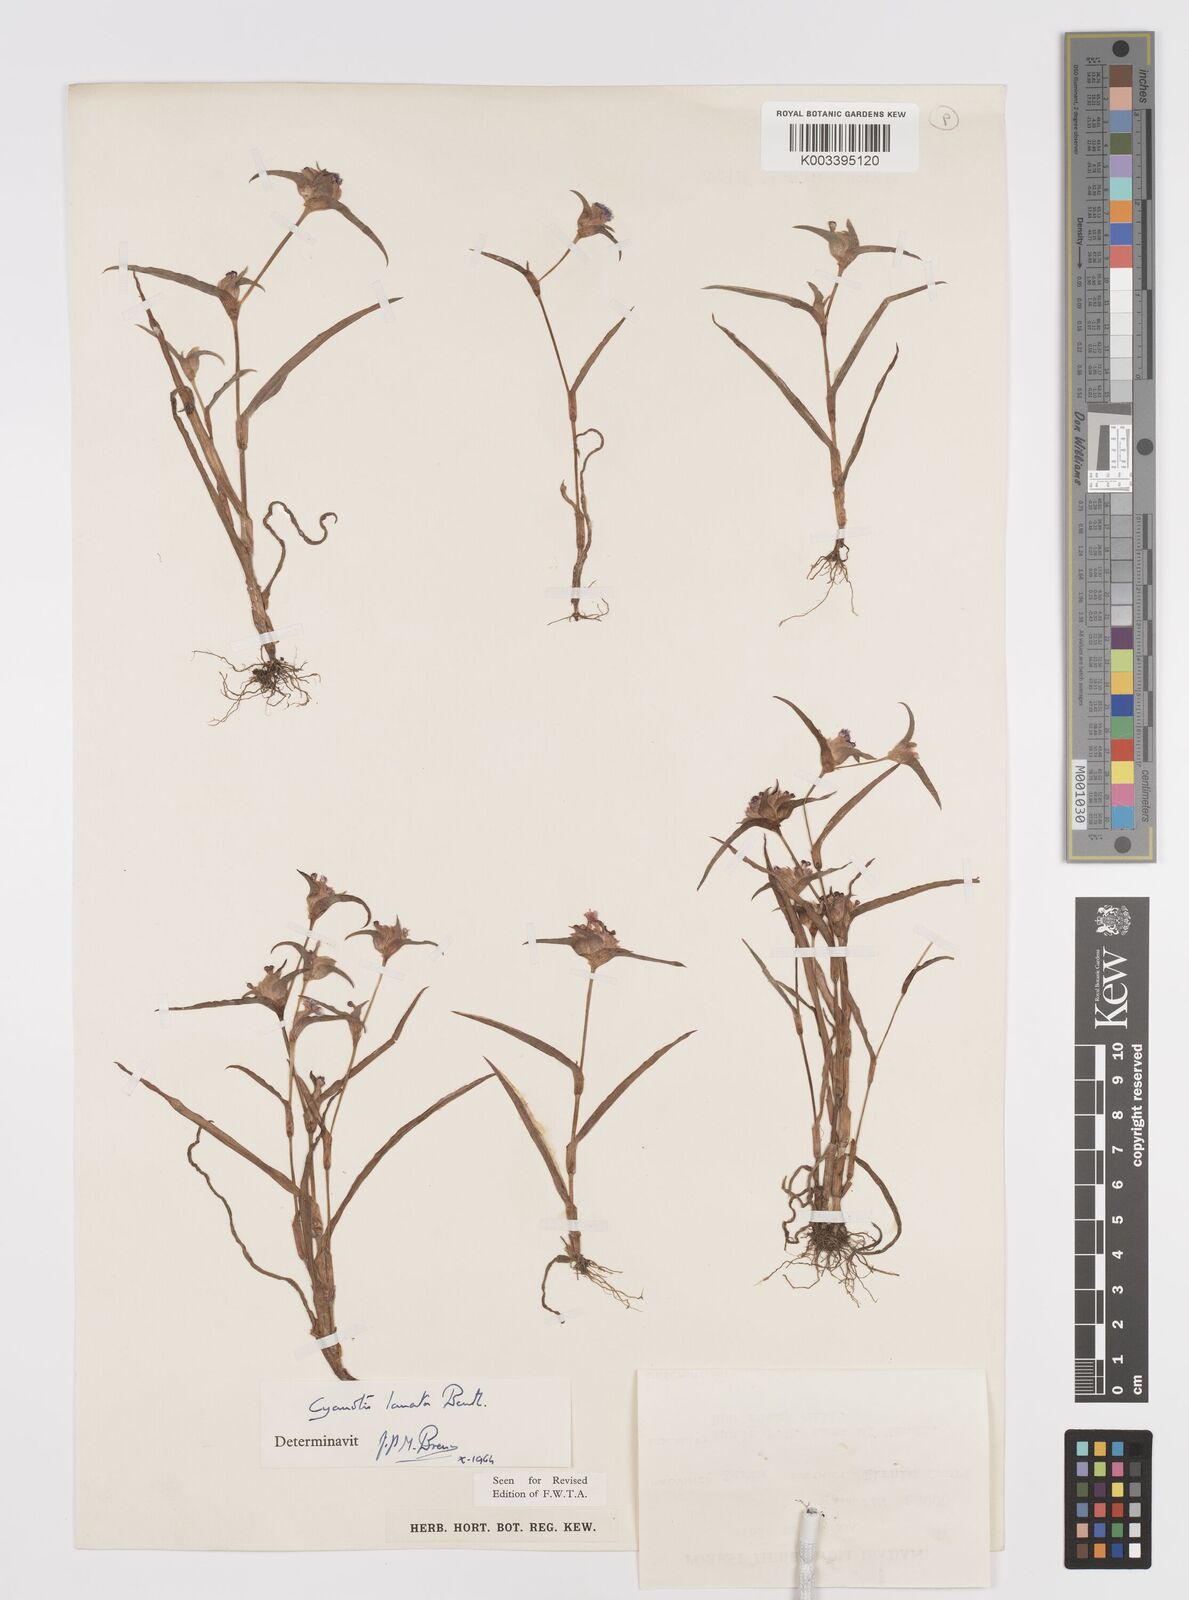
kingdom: Plantae
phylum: Tracheophyta
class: Liliopsida
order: Commelinales
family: Commelinaceae
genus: Cyanotis
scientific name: Cyanotis lanata
